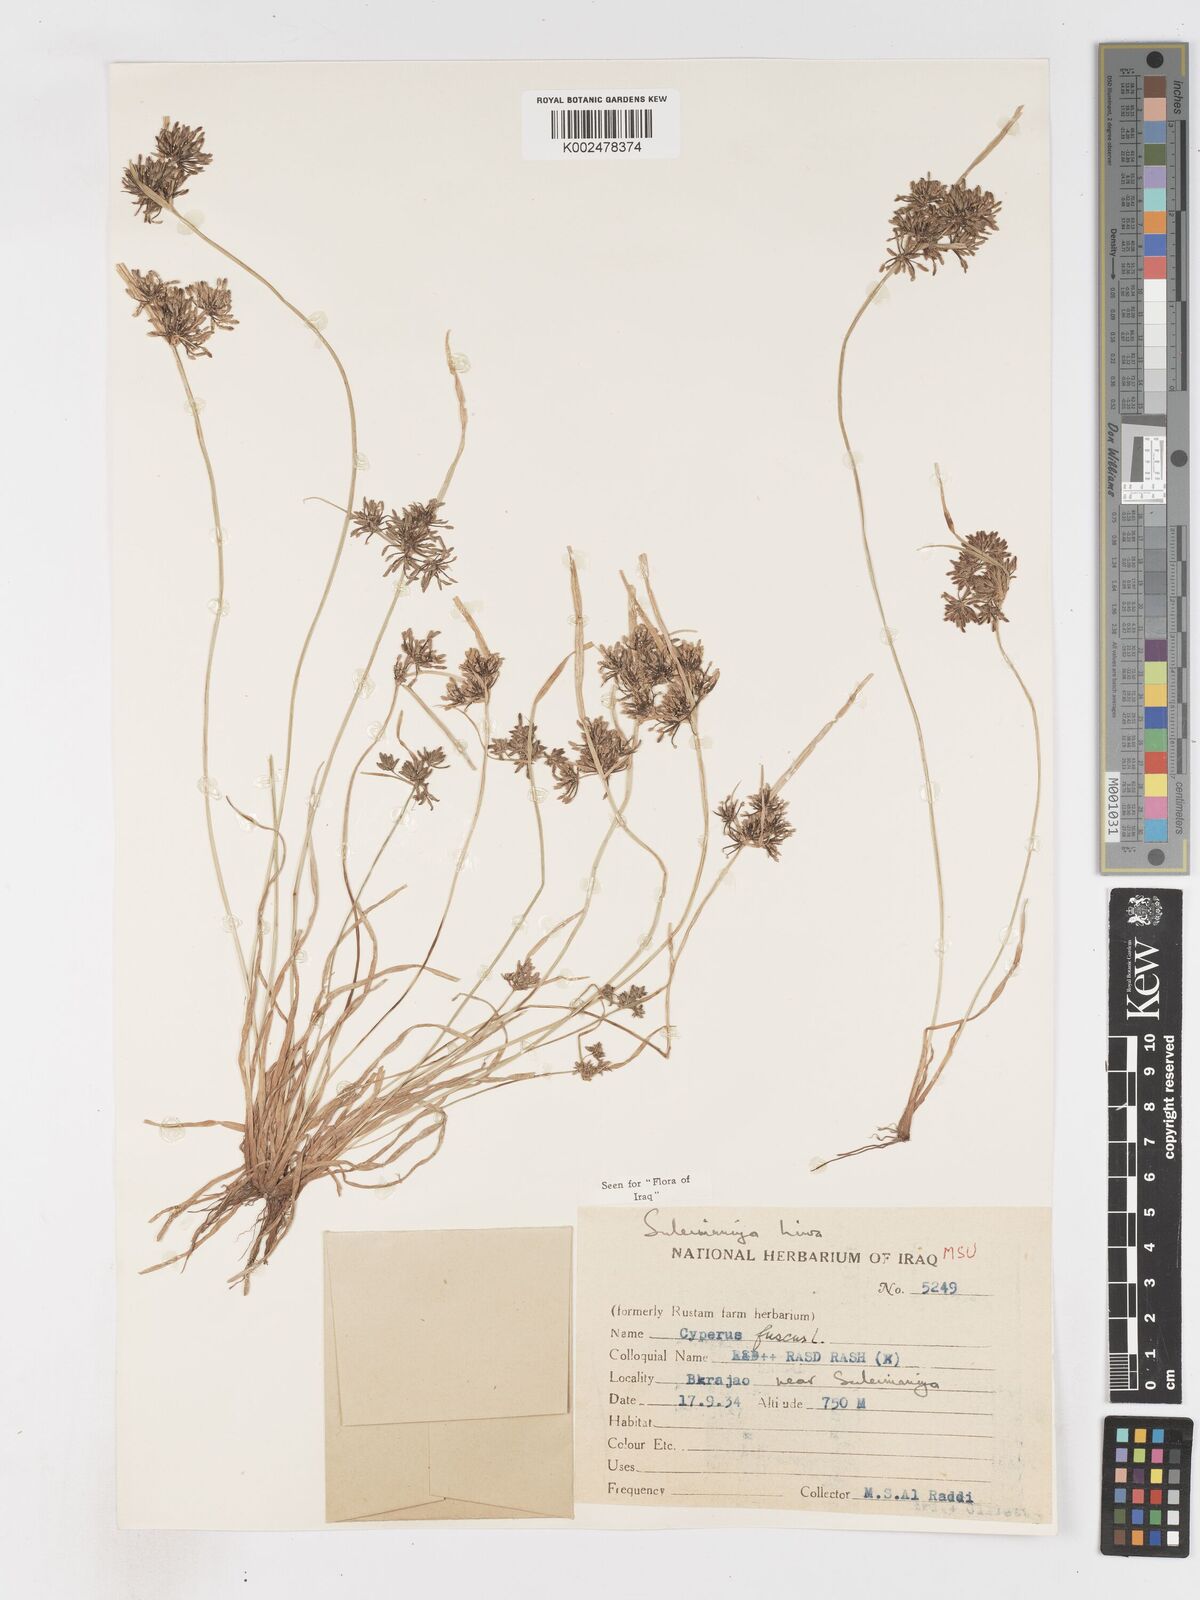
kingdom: Plantae
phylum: Tracheophyta
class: Liliopsida
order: Poales
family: Cyperaceae
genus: Cyperus
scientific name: Cyperus fuscus
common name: Brown galingale
